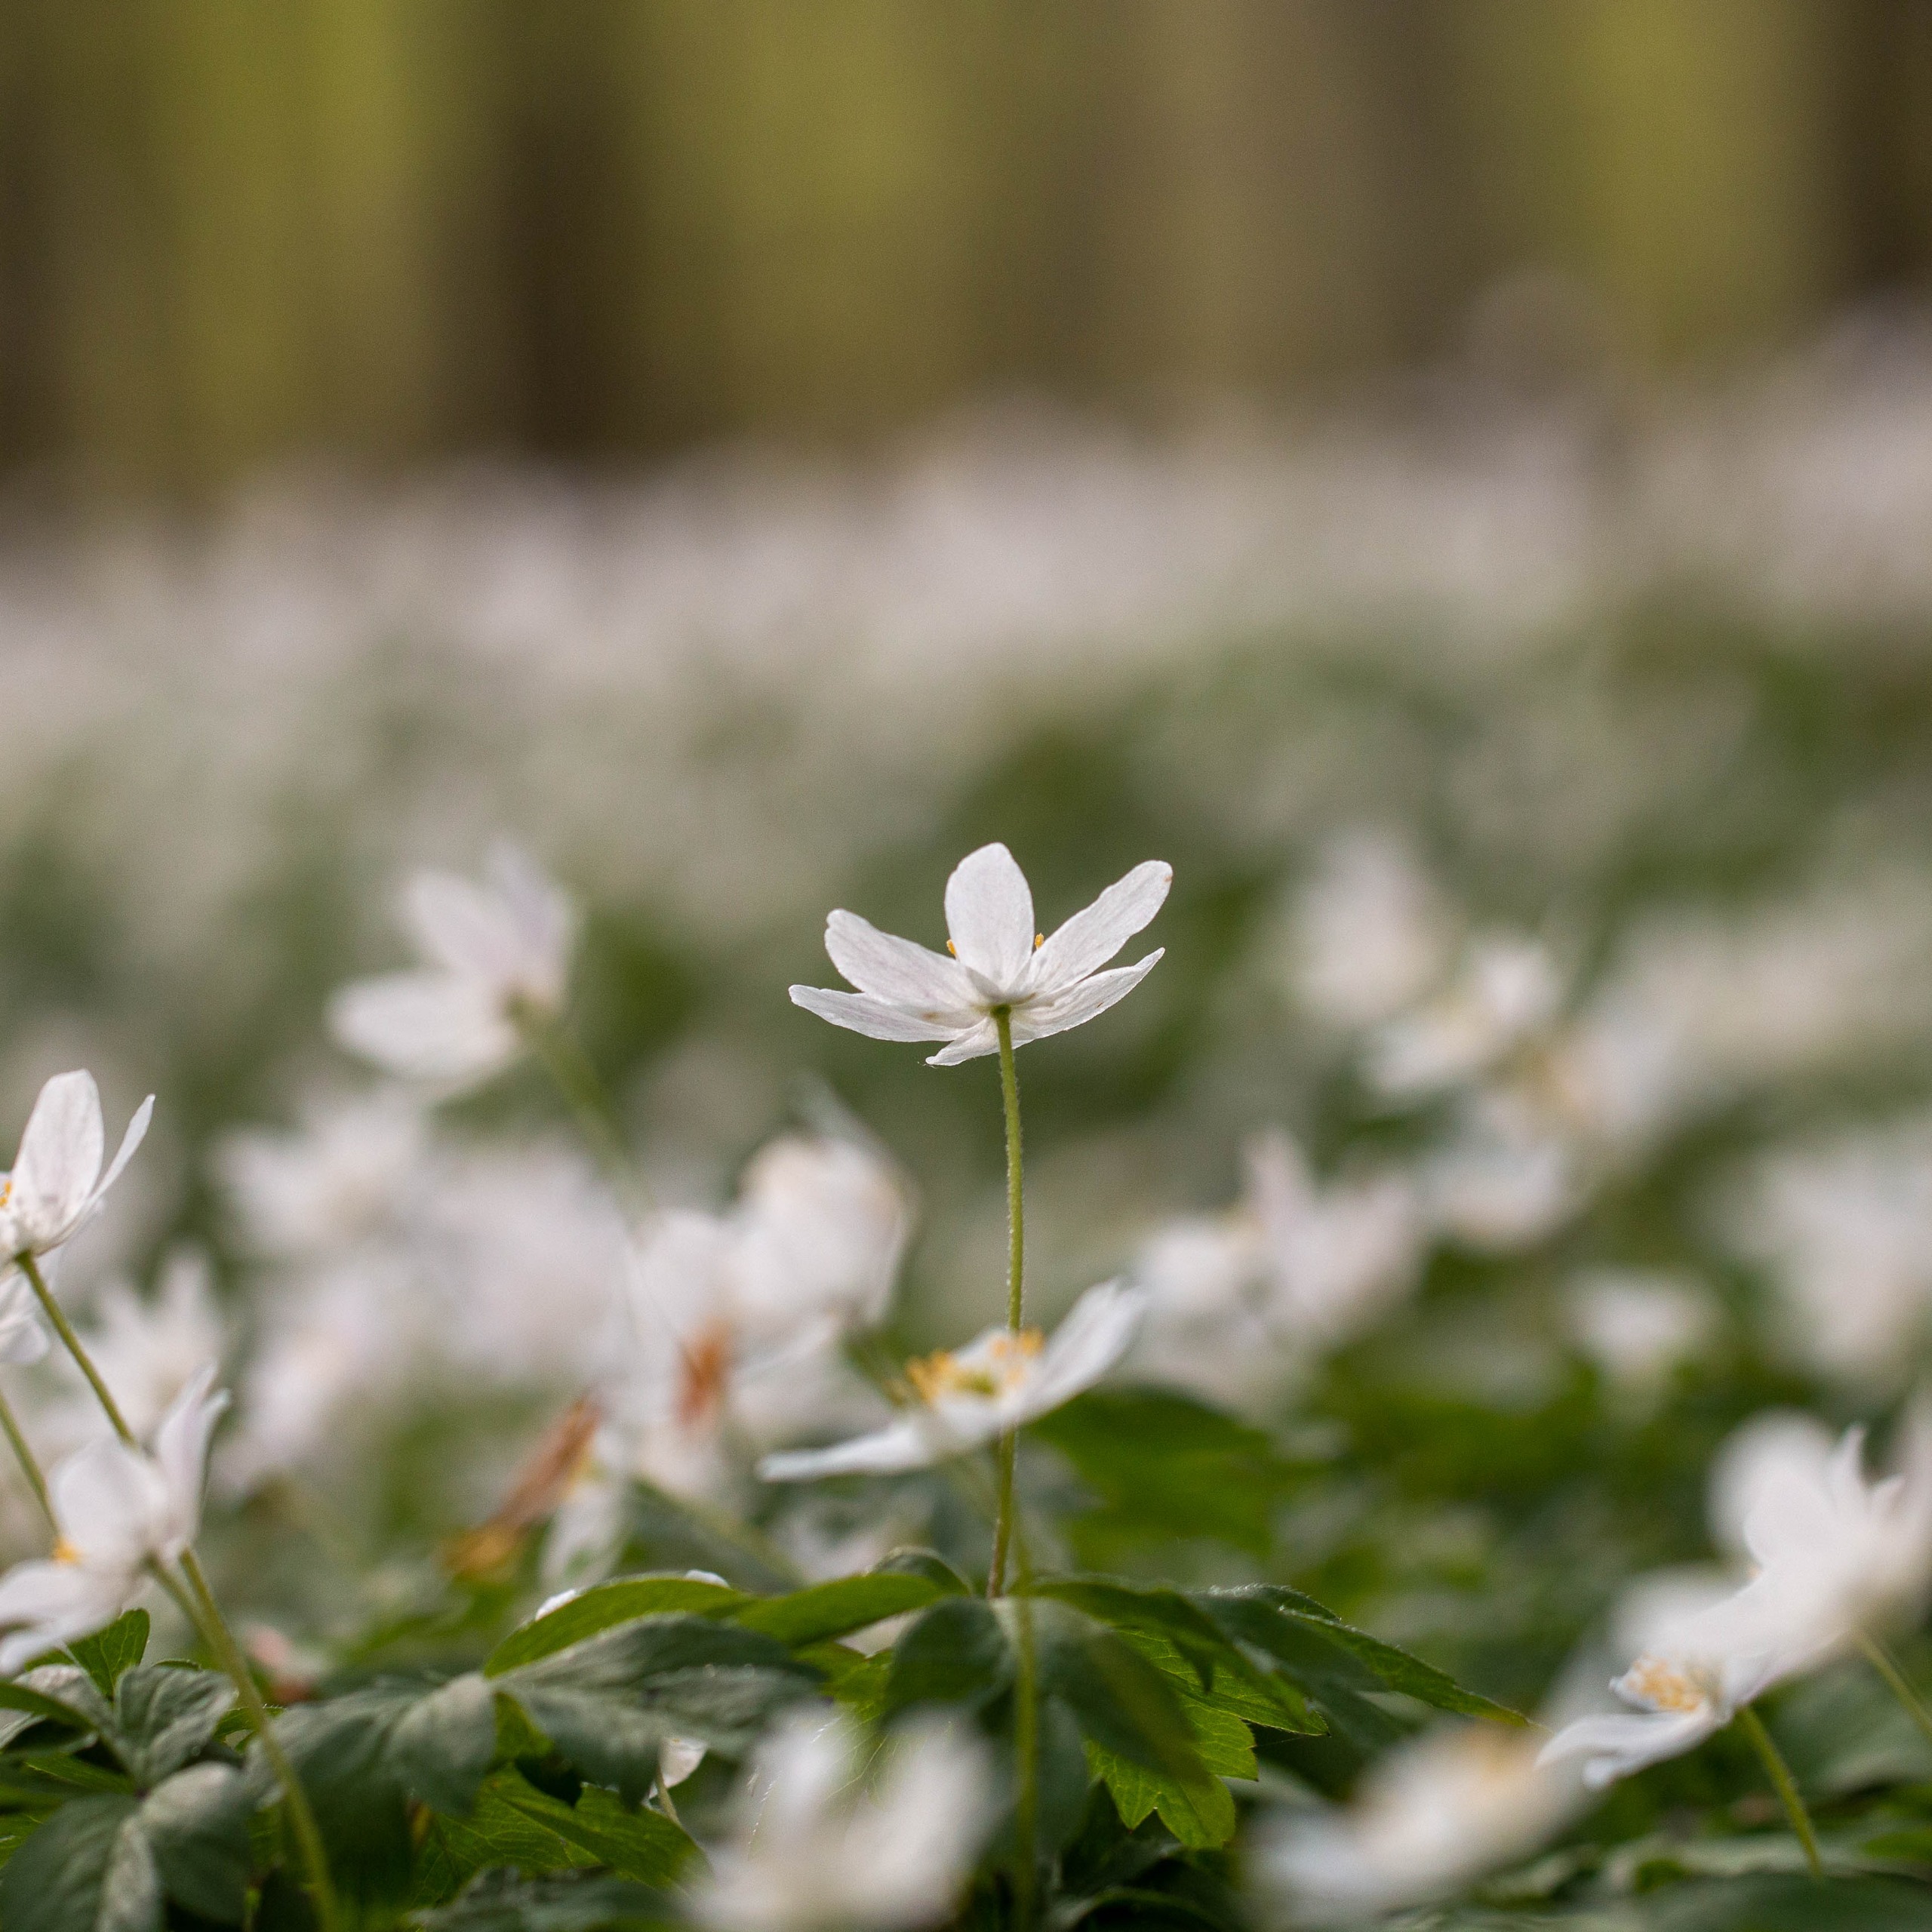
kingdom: Plantae
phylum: Tracheophyta
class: Magnoliopsida
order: Ranunculales
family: Ranunculaceae
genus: Anemone
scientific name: Anemone nemorosa
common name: Hvid anemone
